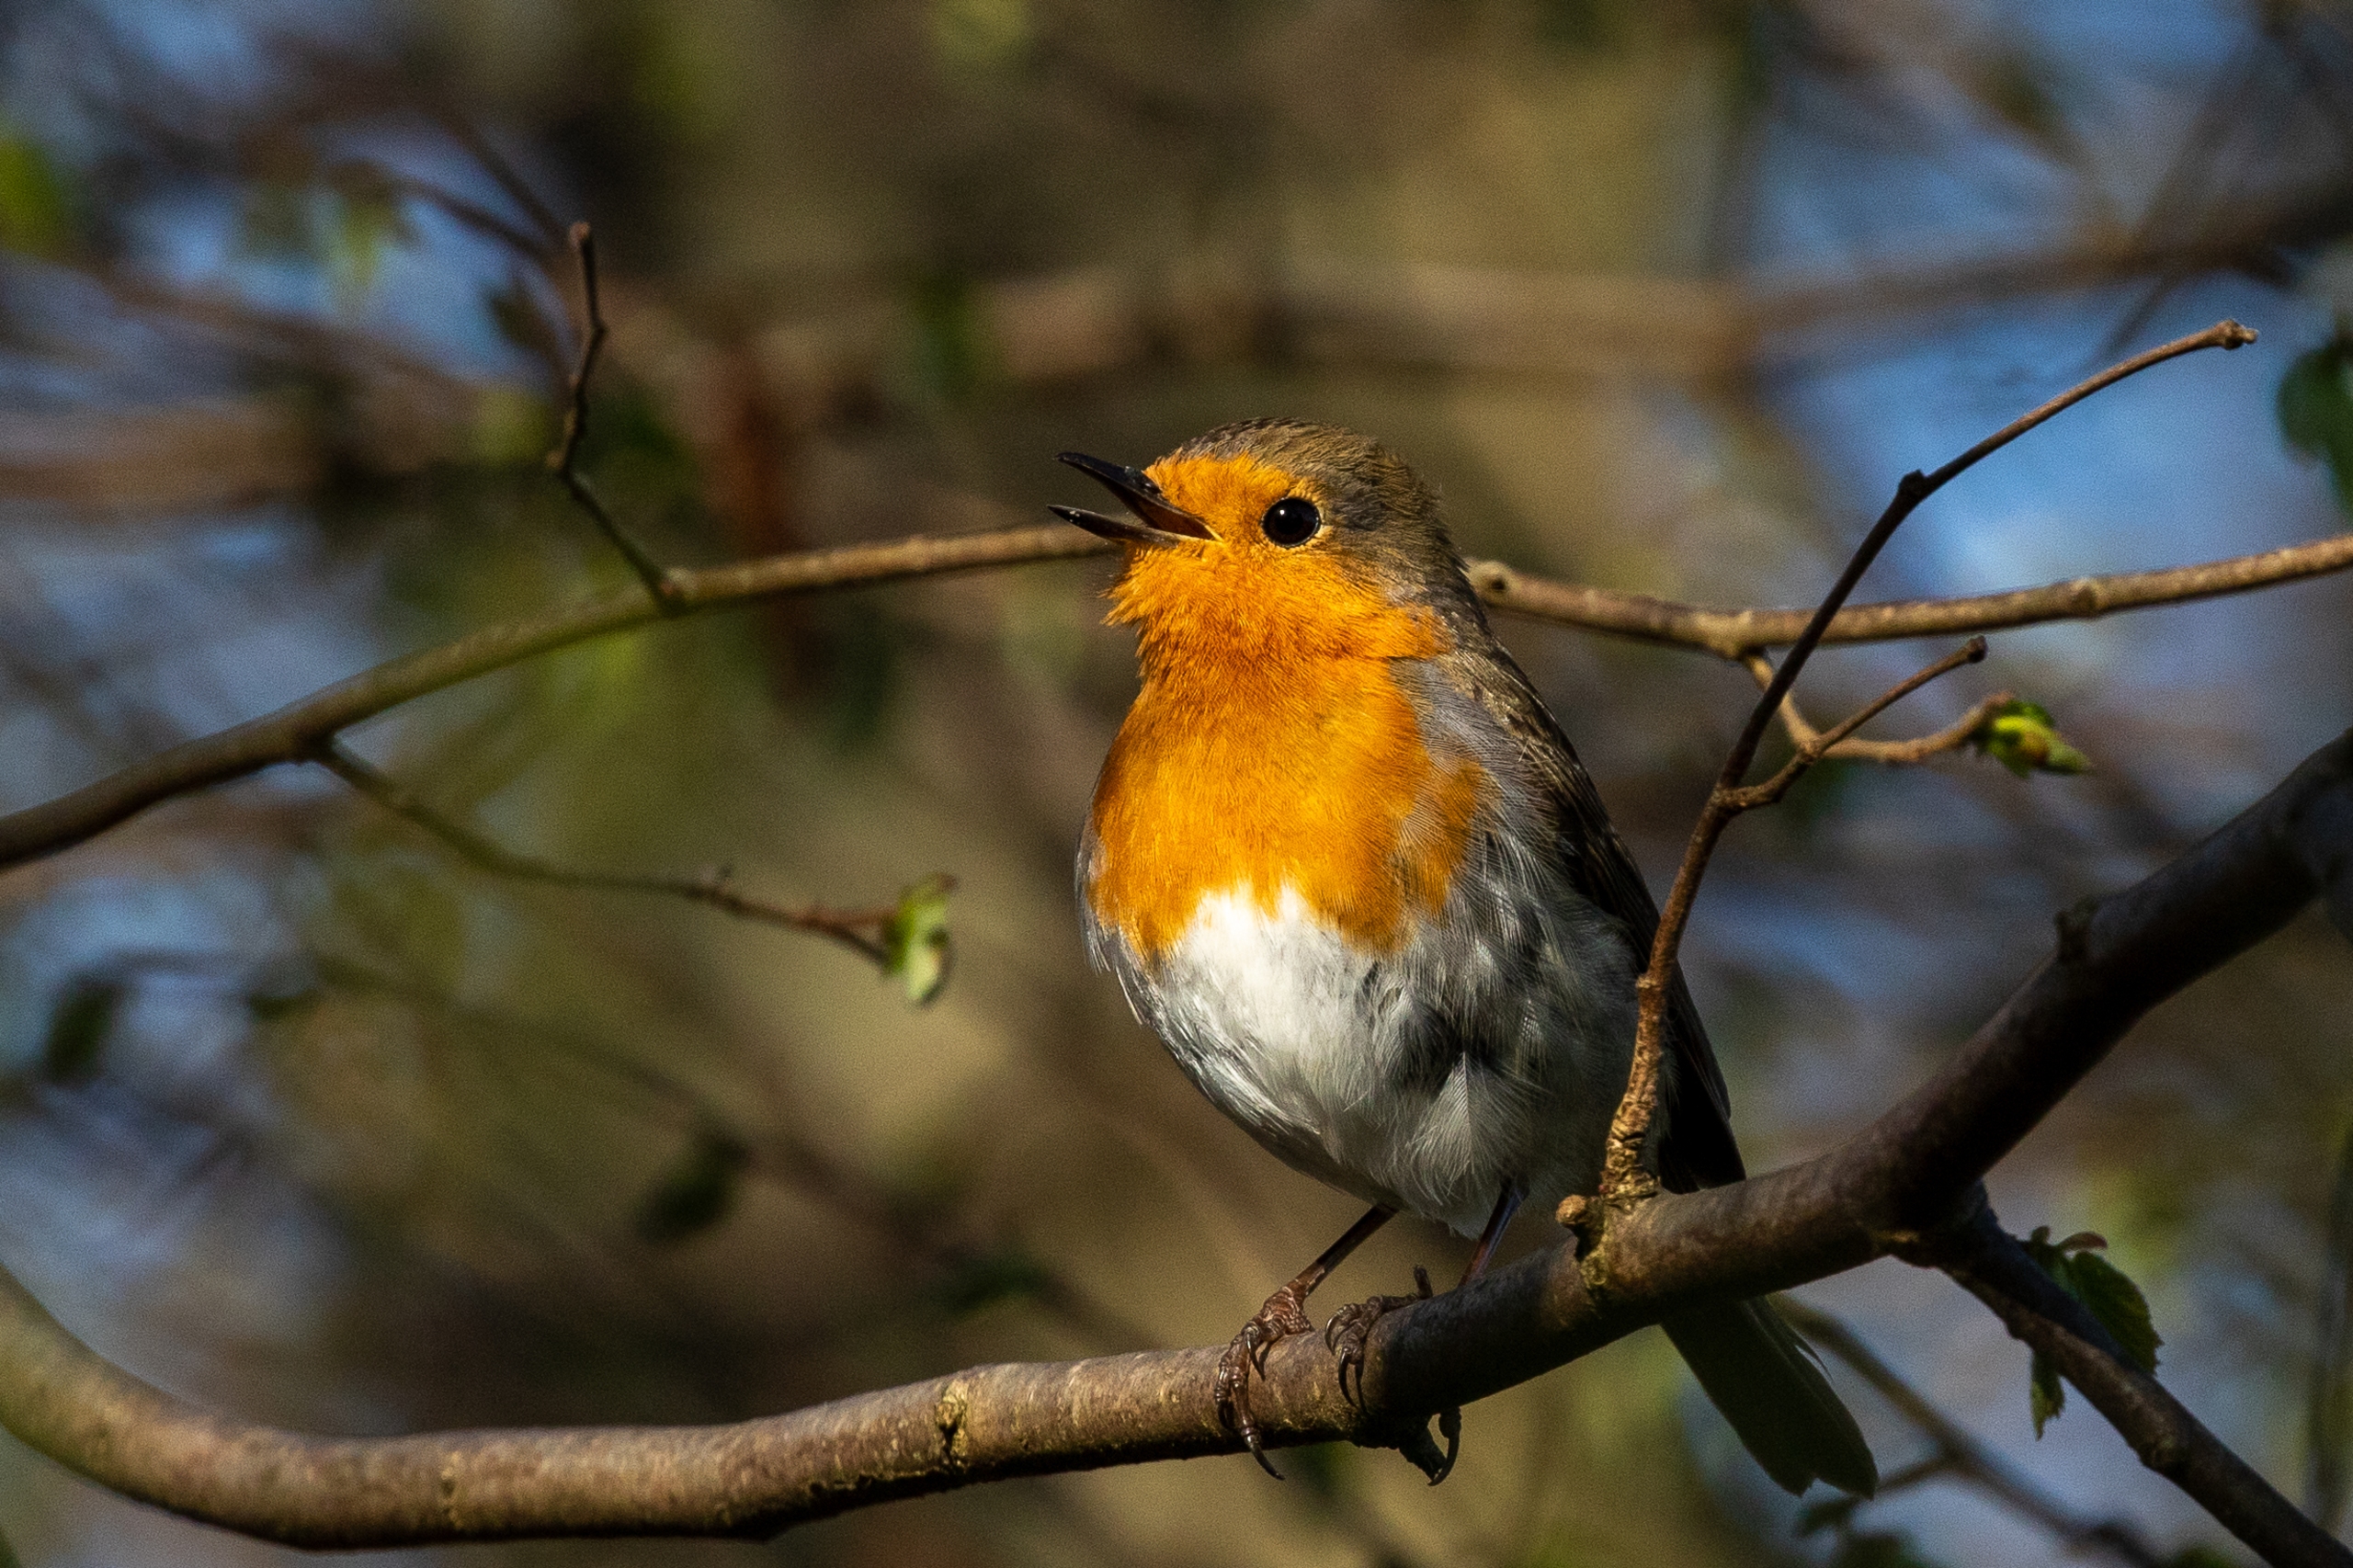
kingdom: Animalia
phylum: Chordata
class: Aves
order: Passeriformes
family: Muscicapidae
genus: Erithacus
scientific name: Erithacus rubecula
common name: Rødhals/rødkælk
